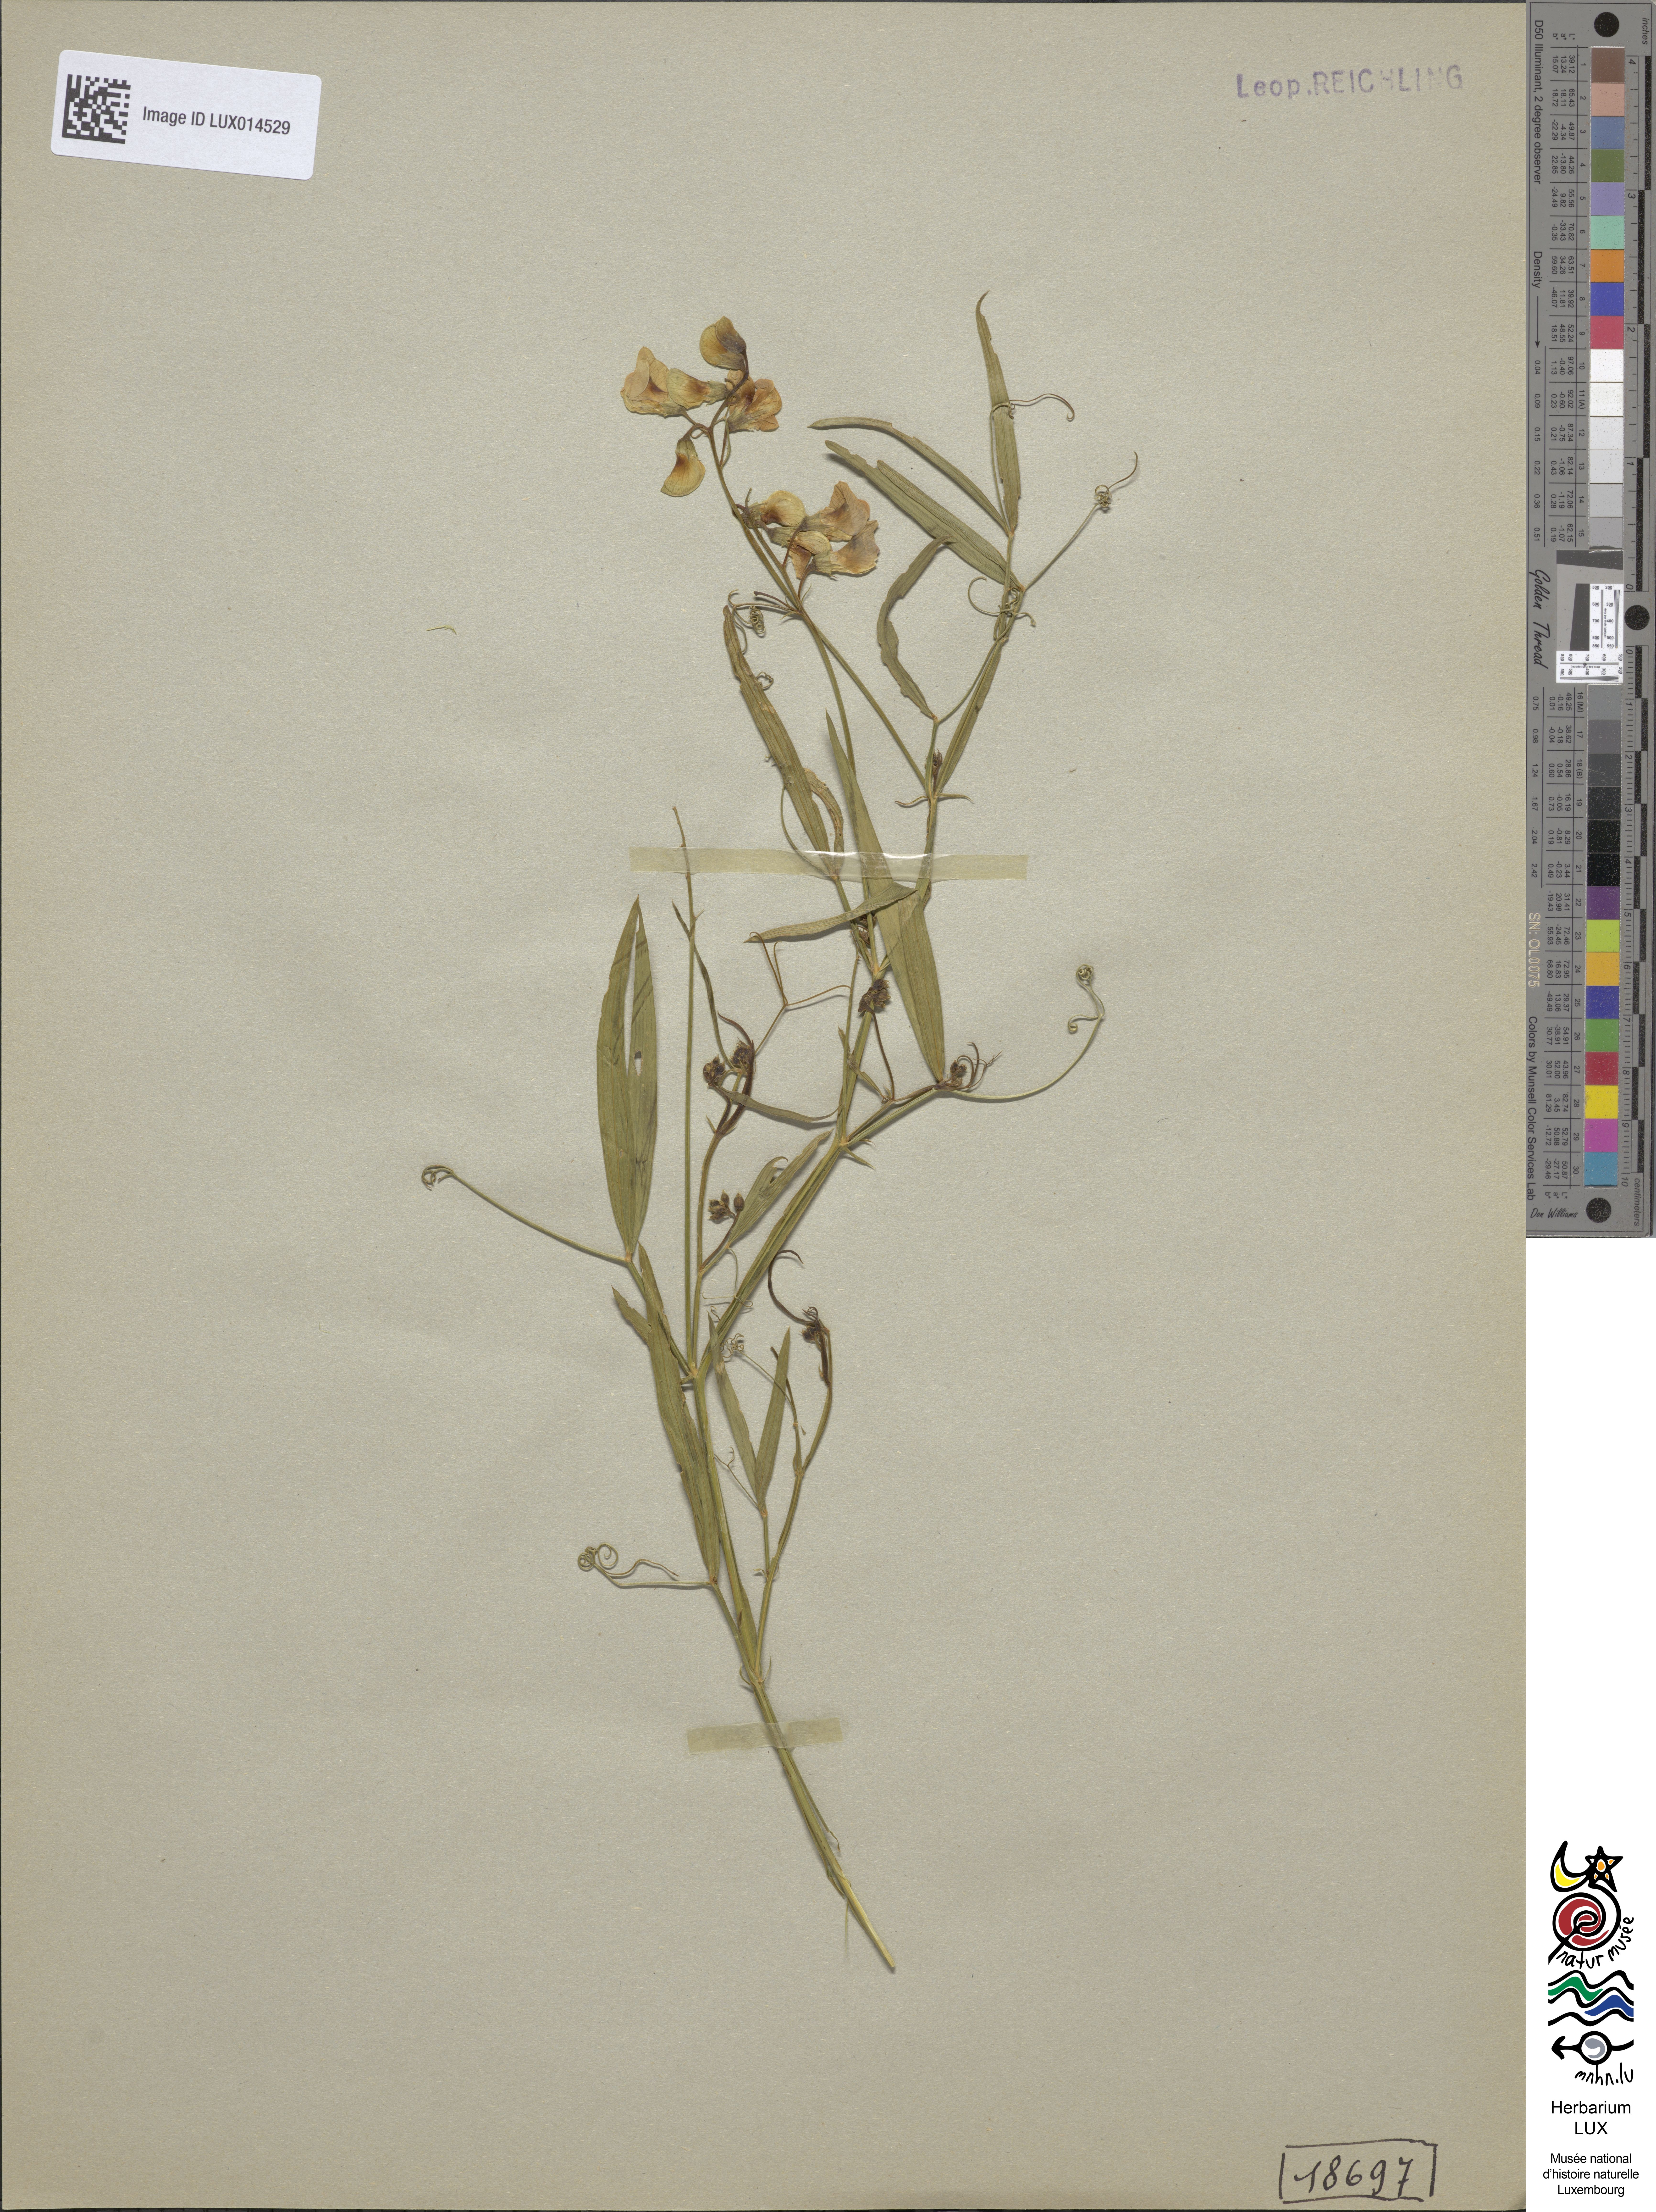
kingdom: Plantae
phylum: Tracheophyta
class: Magnoliopsida
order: Fabales
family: Fabaceae
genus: Lathyrus
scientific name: Lathyrus sylvestris
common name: Flat pea
